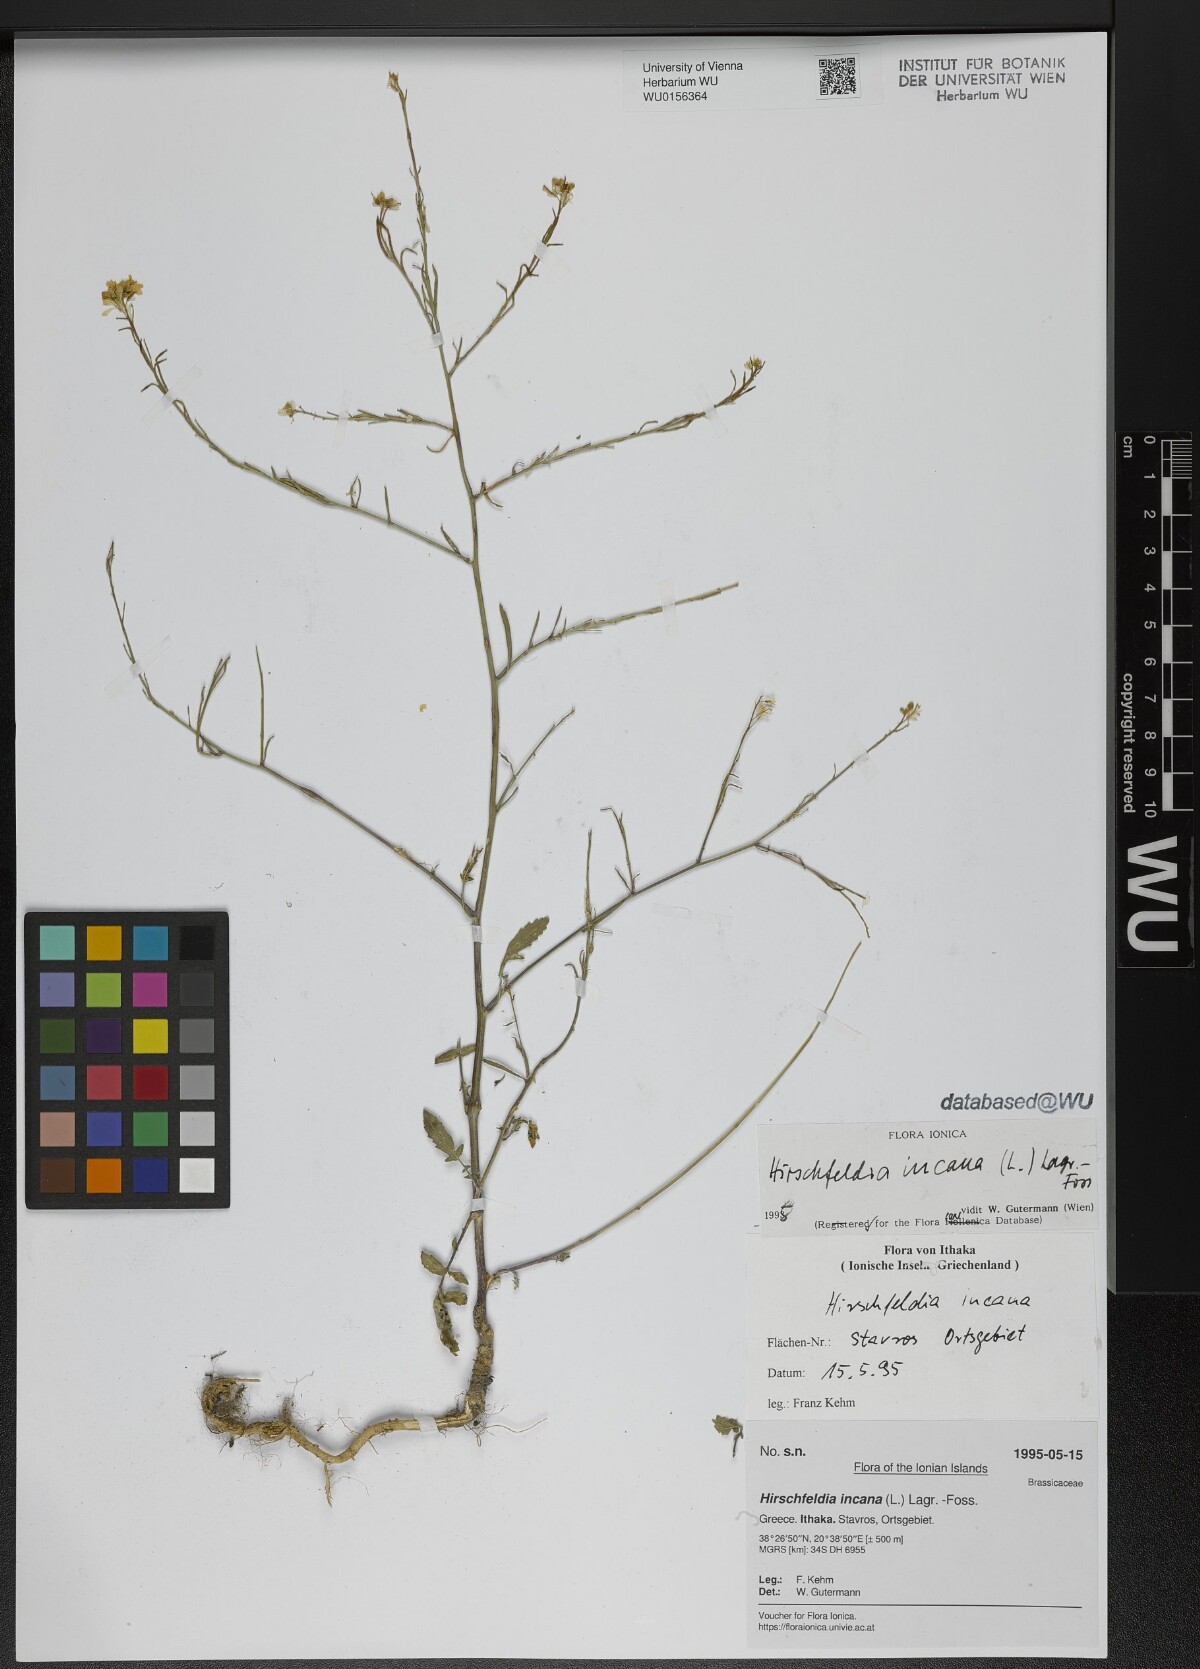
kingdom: Plantae
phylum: Tracheophyta
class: Magnoliopsida
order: Brassicales
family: Brassicaceae
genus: Hirschfeldia
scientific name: Hirschfeldia incana
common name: Hoary mustard
